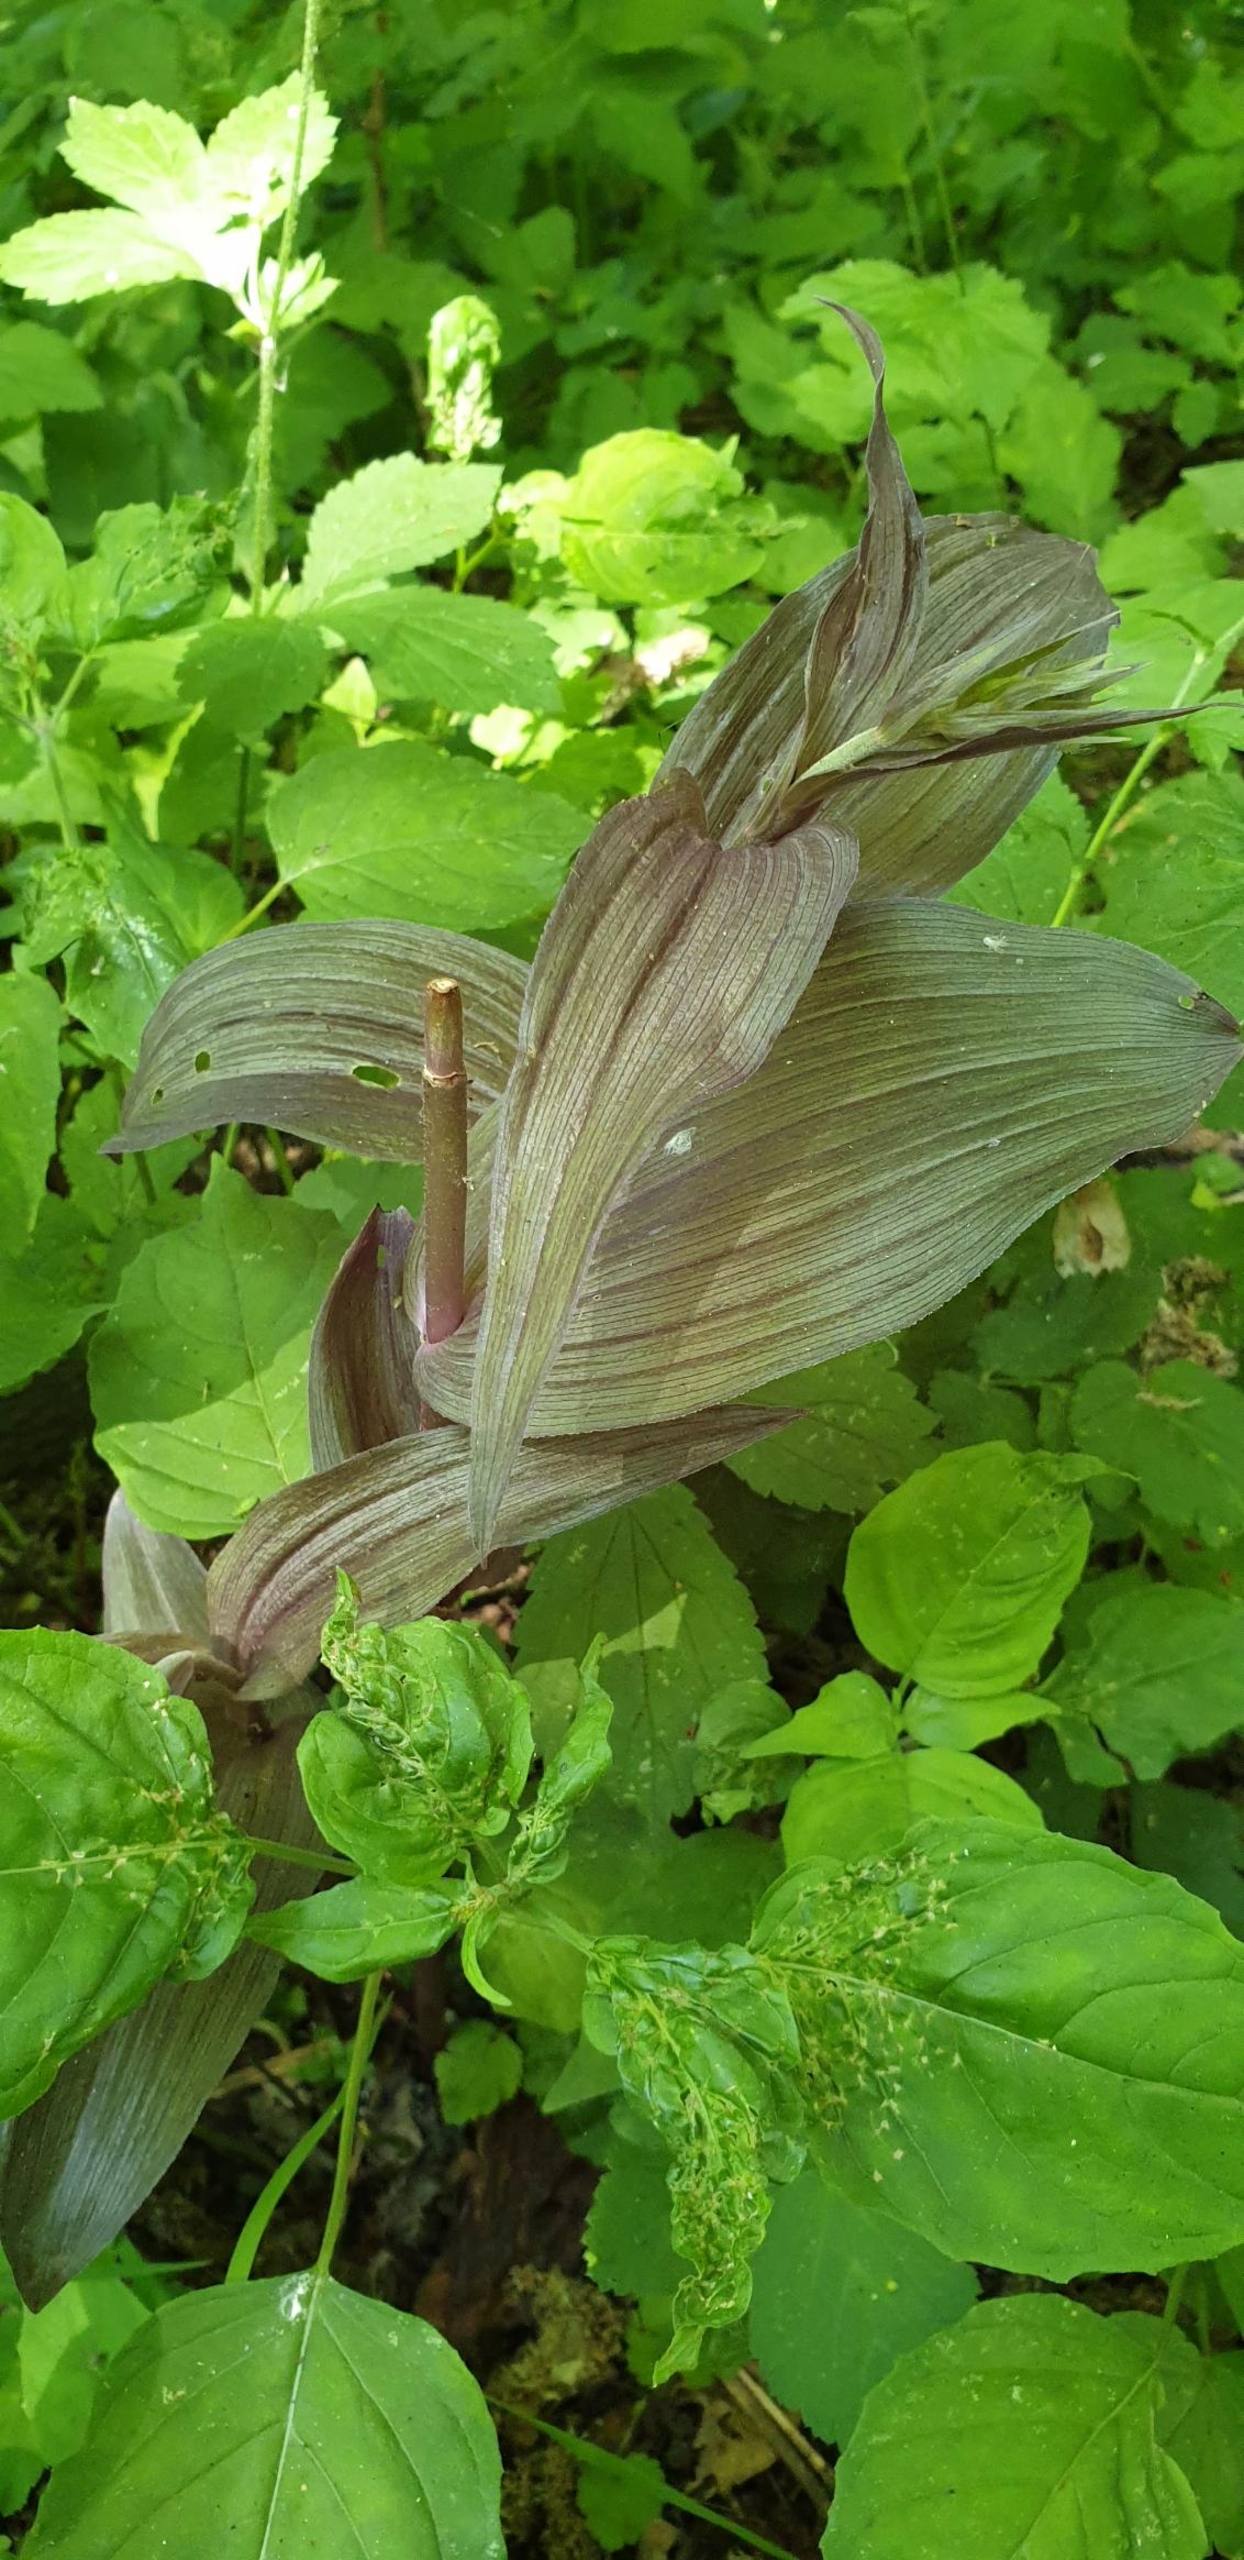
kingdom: Plantae
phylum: Tracheophyta
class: Liliopsida
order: Asparagales
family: Orchidaceae
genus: Epipactis
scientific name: Epipactis helleborine
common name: Skov-hullæbe
